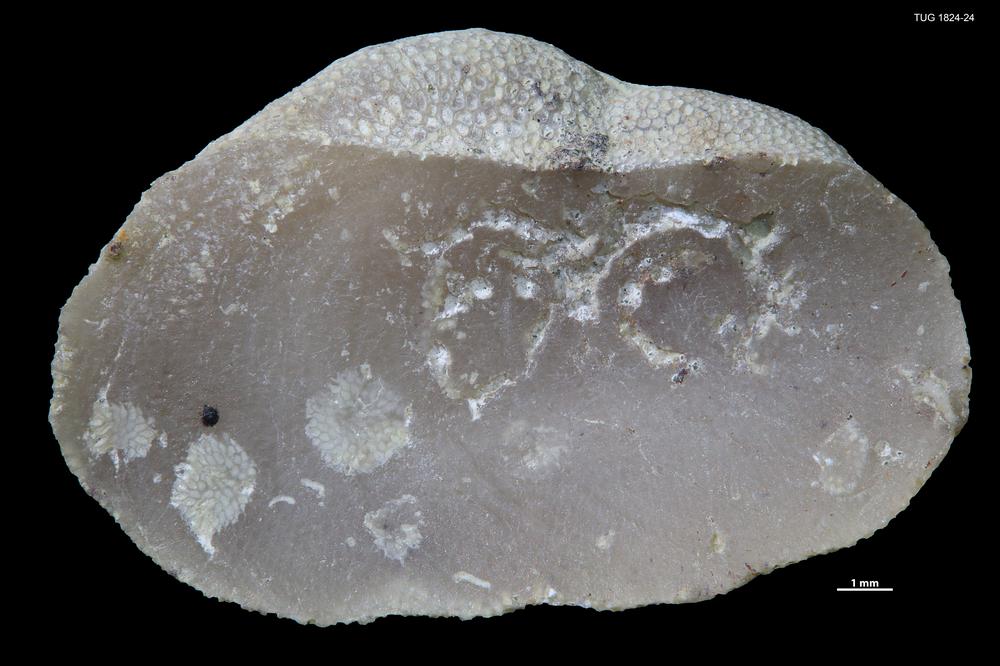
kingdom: Animalia
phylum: Brachiopoda
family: Sowerbyellidae
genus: Sowerbyella
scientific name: Sowerbyella
